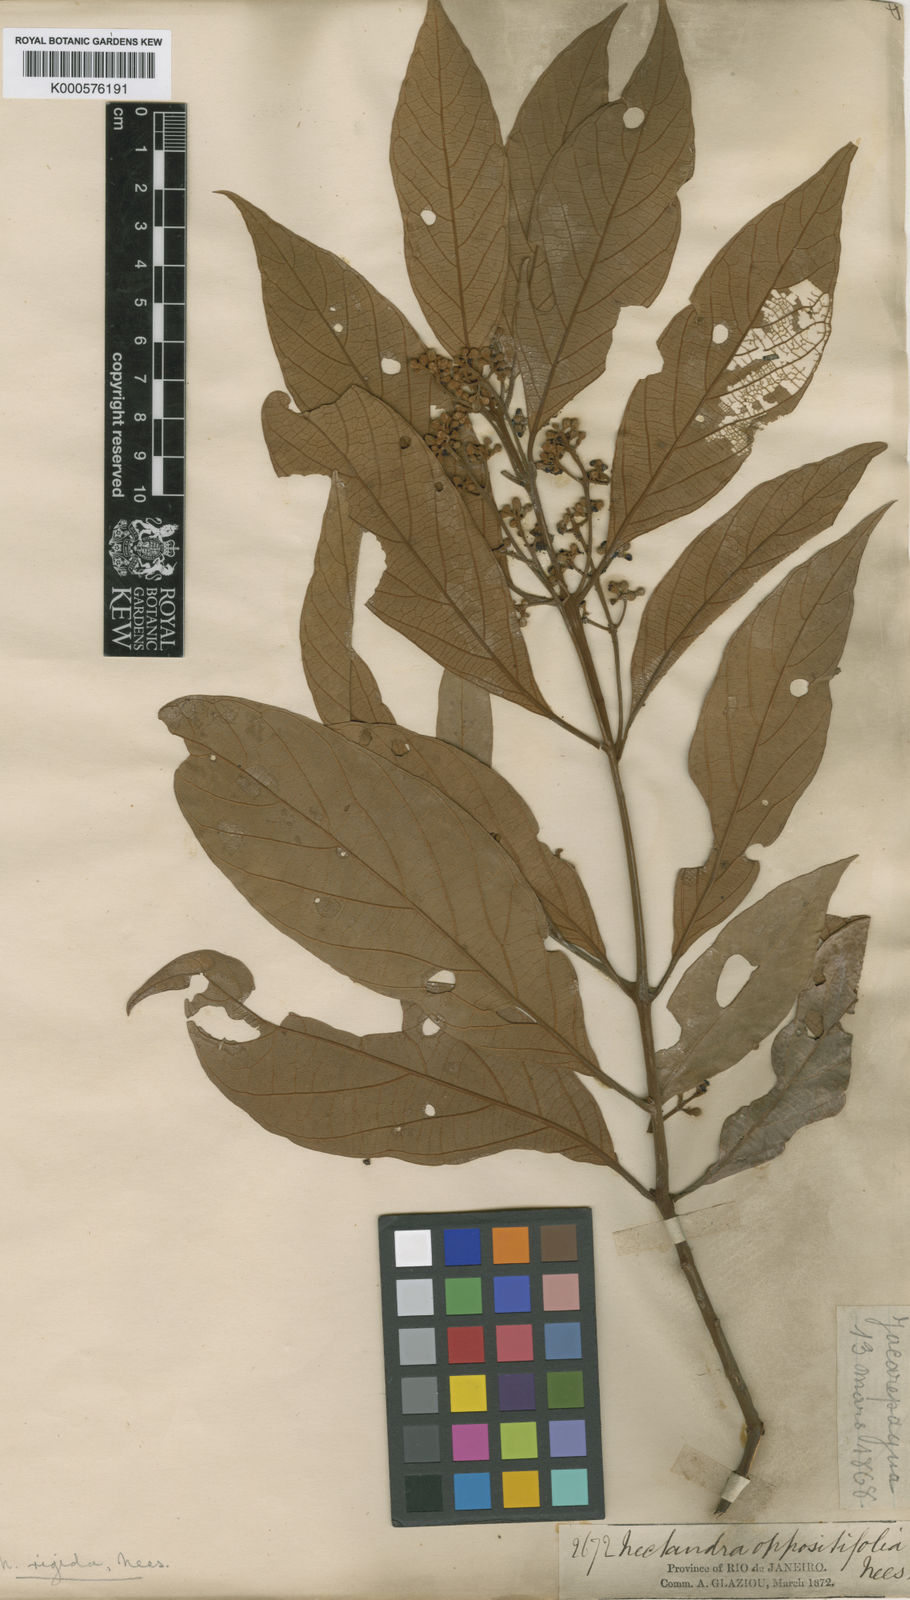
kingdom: Plantae
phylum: Tracheophyta
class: Magnoliopsida
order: Laurales
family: Lauraceae
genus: Nectandra
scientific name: Nectandra oppositifolia
